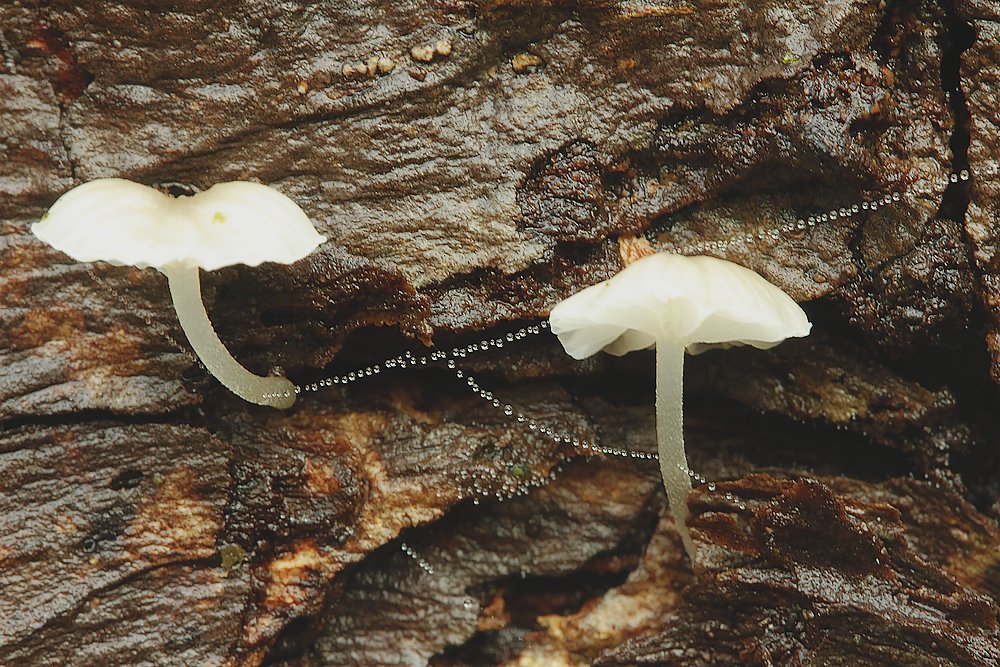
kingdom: Fungi
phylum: Basidiomycota
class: Agaricomycetes
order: Agaricales
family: Porotheleaceae
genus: Phloeomana
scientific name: Phloeomana speirea
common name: kvist-huesvamp
